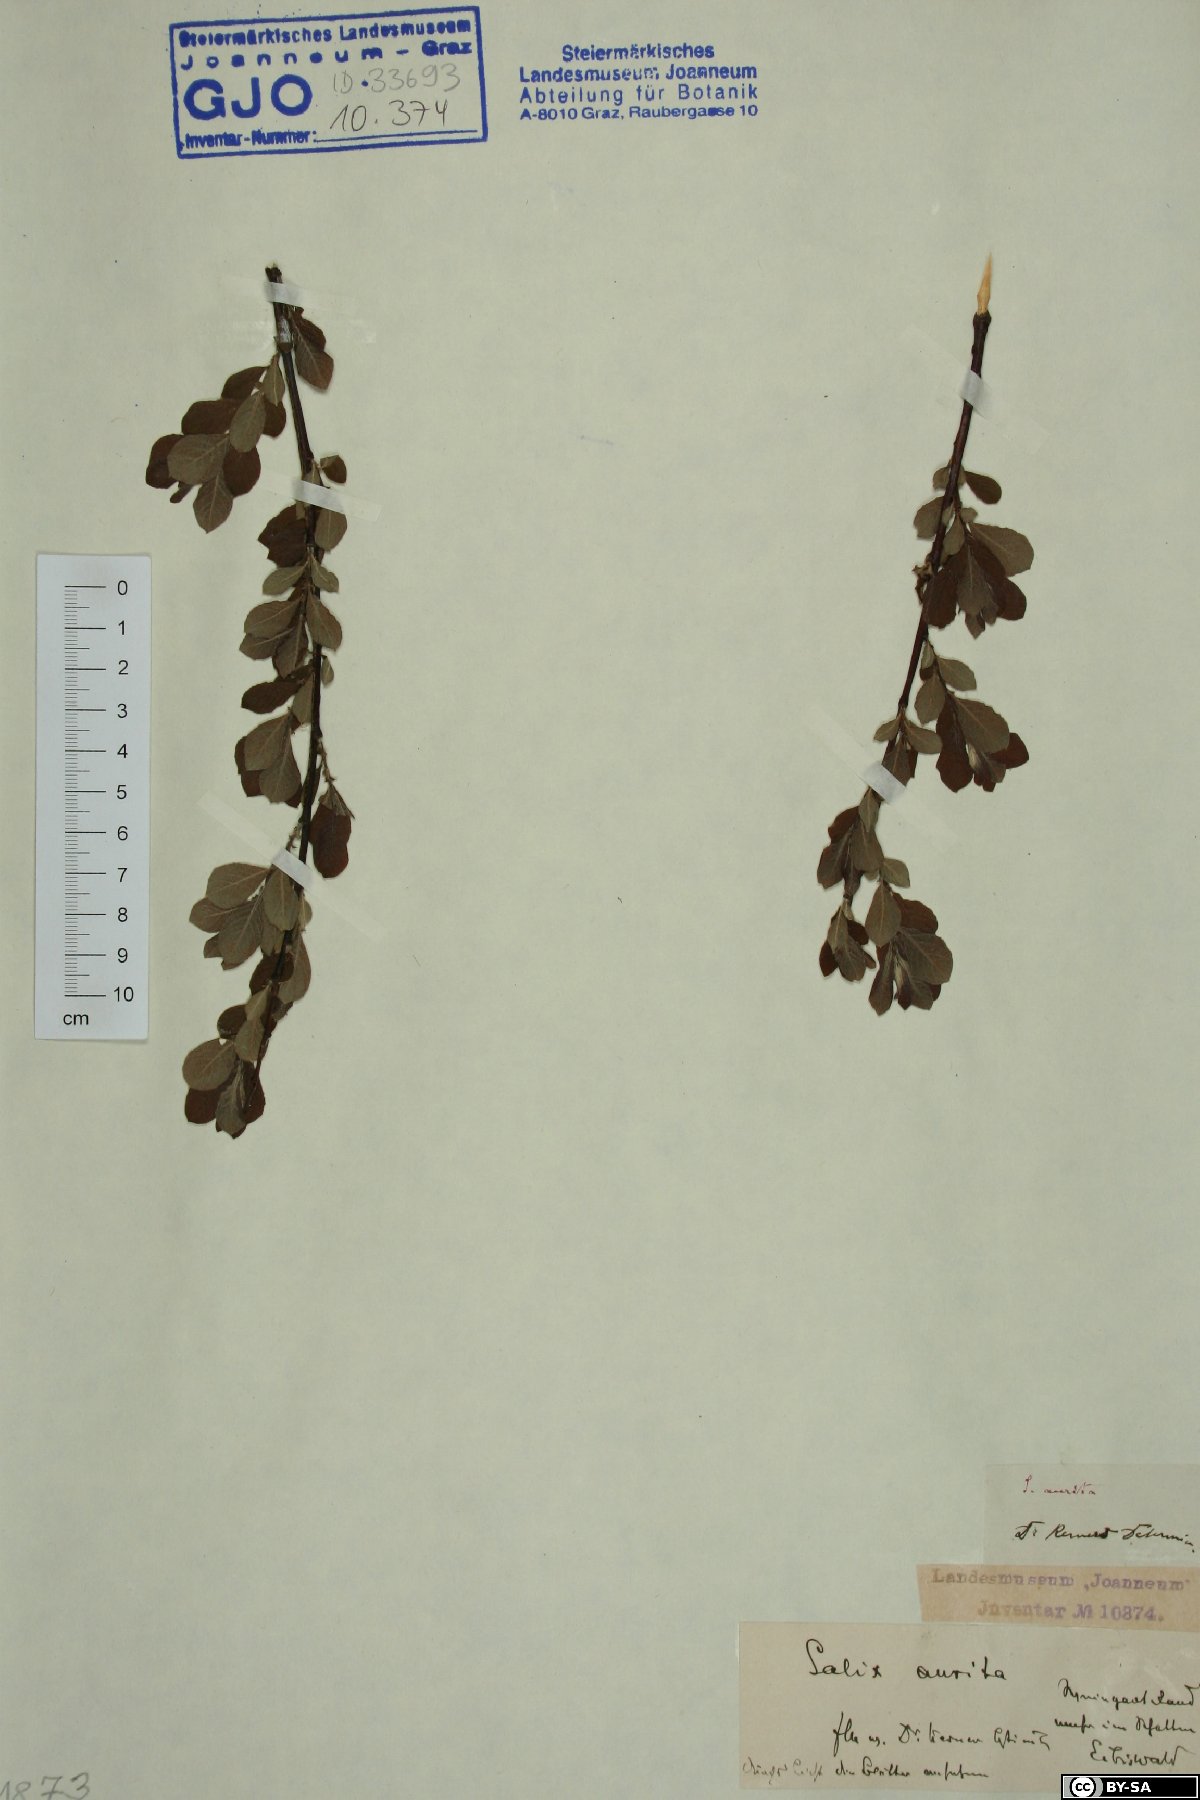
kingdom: Plantae
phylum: Tracheophyta
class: Magnoliopsida
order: Malpighiales
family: Salicaceae
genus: Salix
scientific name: Salix aurita
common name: Eared willow
